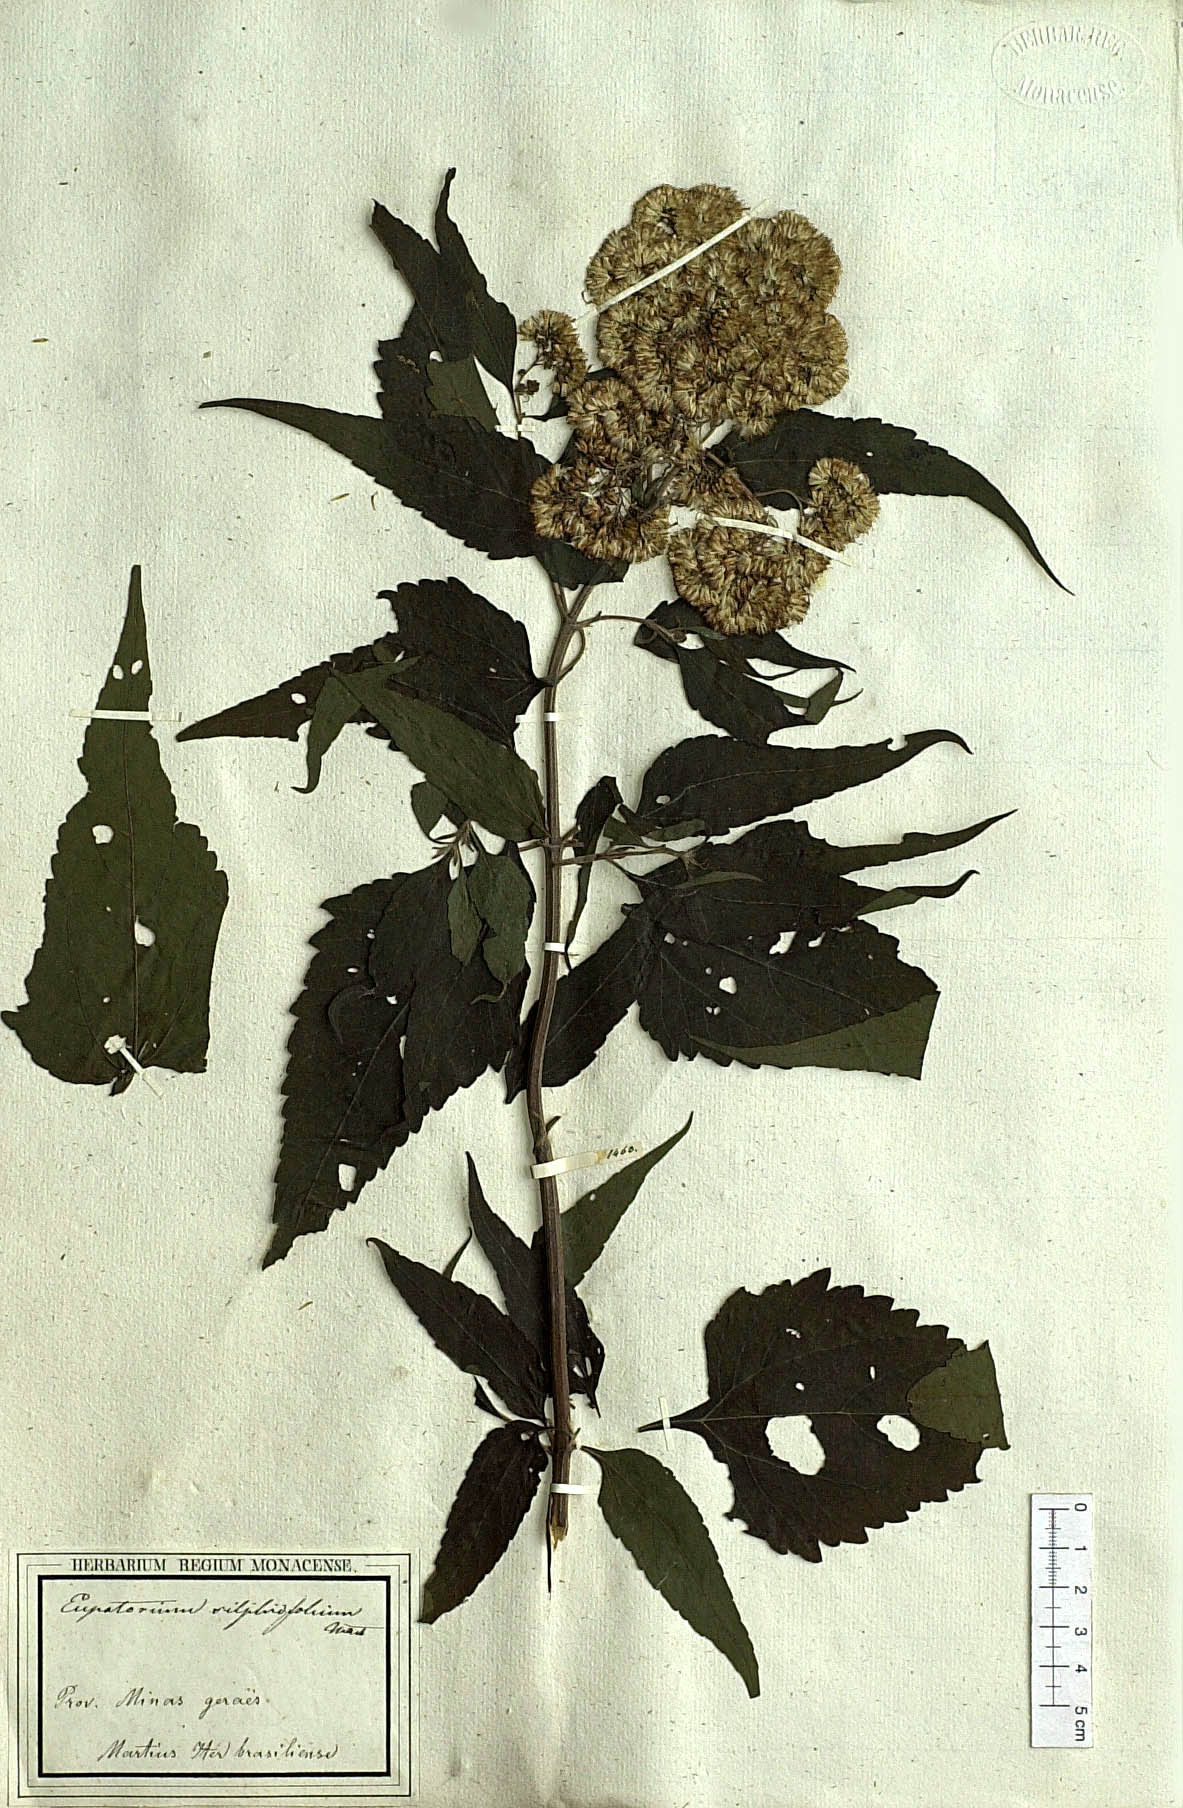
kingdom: Plantae
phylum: Tracheophyta
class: Magnoliopsida
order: Asterales
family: Asteraceae
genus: Austroeupatorium
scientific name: Austroeupatorium silphiifolium
